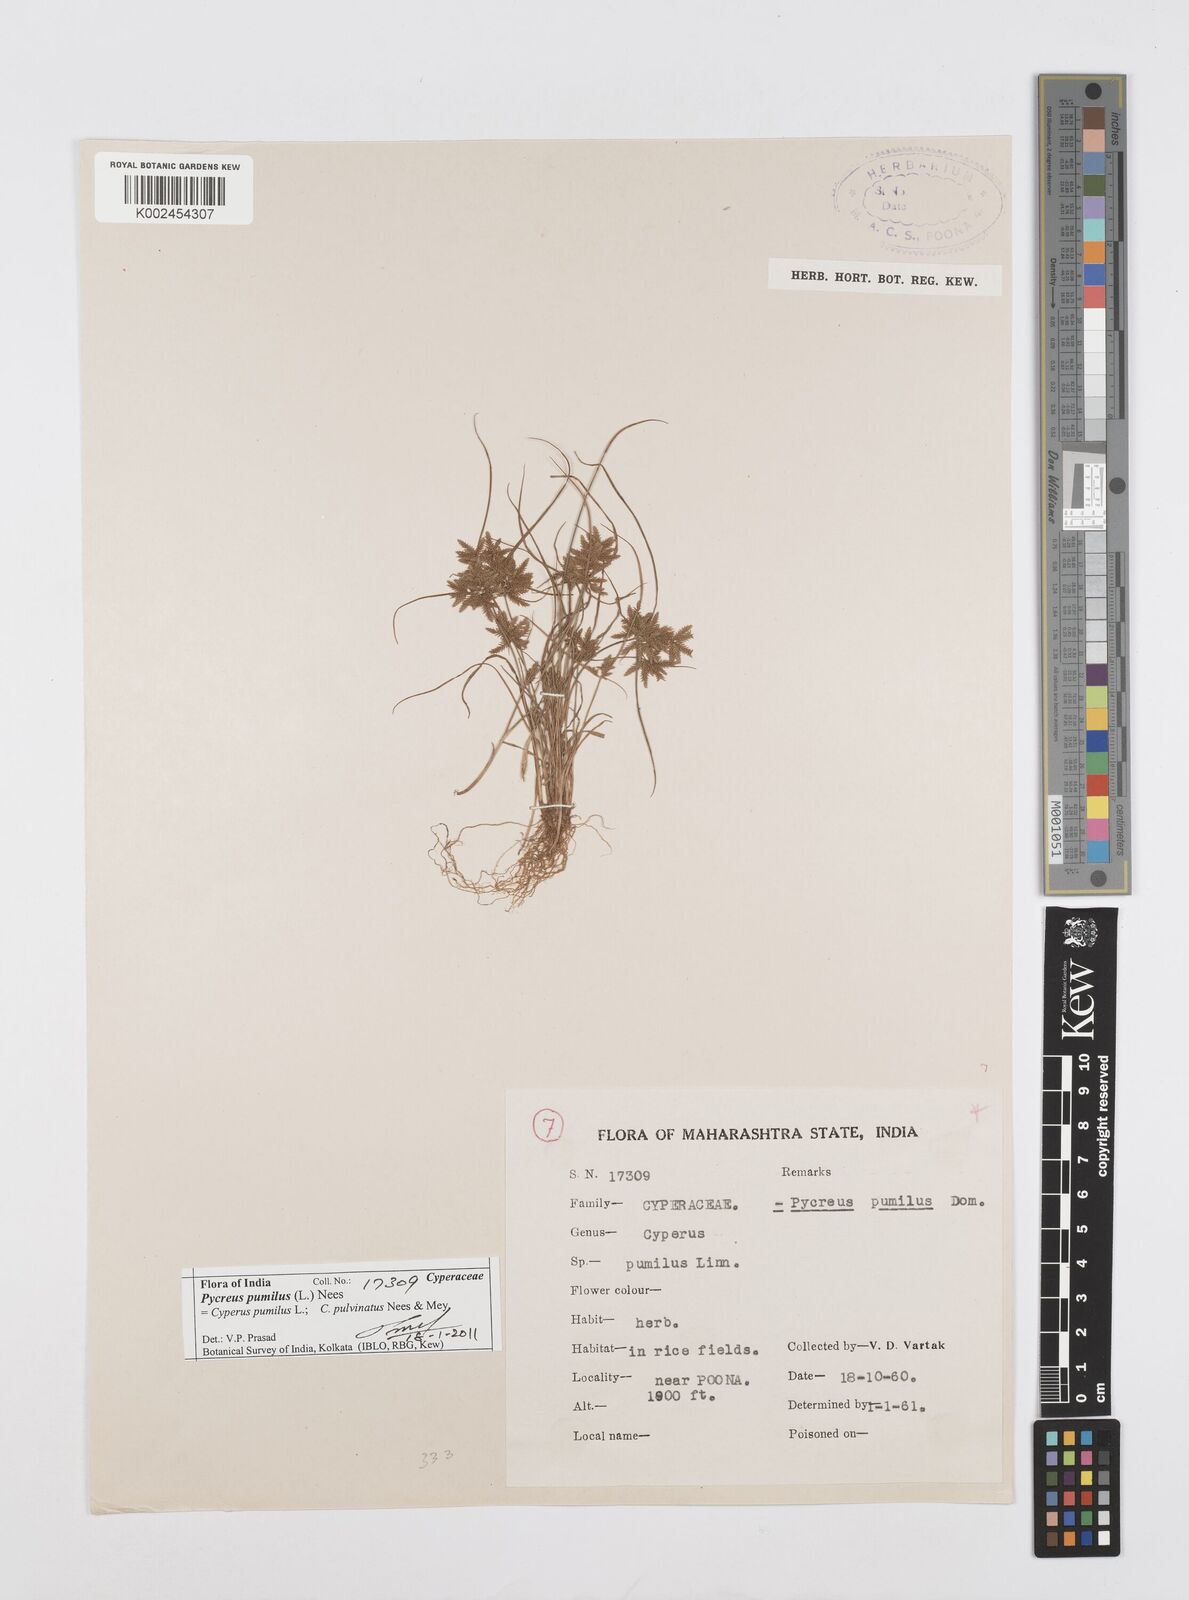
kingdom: Plantae
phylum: Tracheophyta
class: Liliopsida
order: Poales
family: Cyperaceae
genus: Cyperus
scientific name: Cyperus pumilus
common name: Low flatsedge
